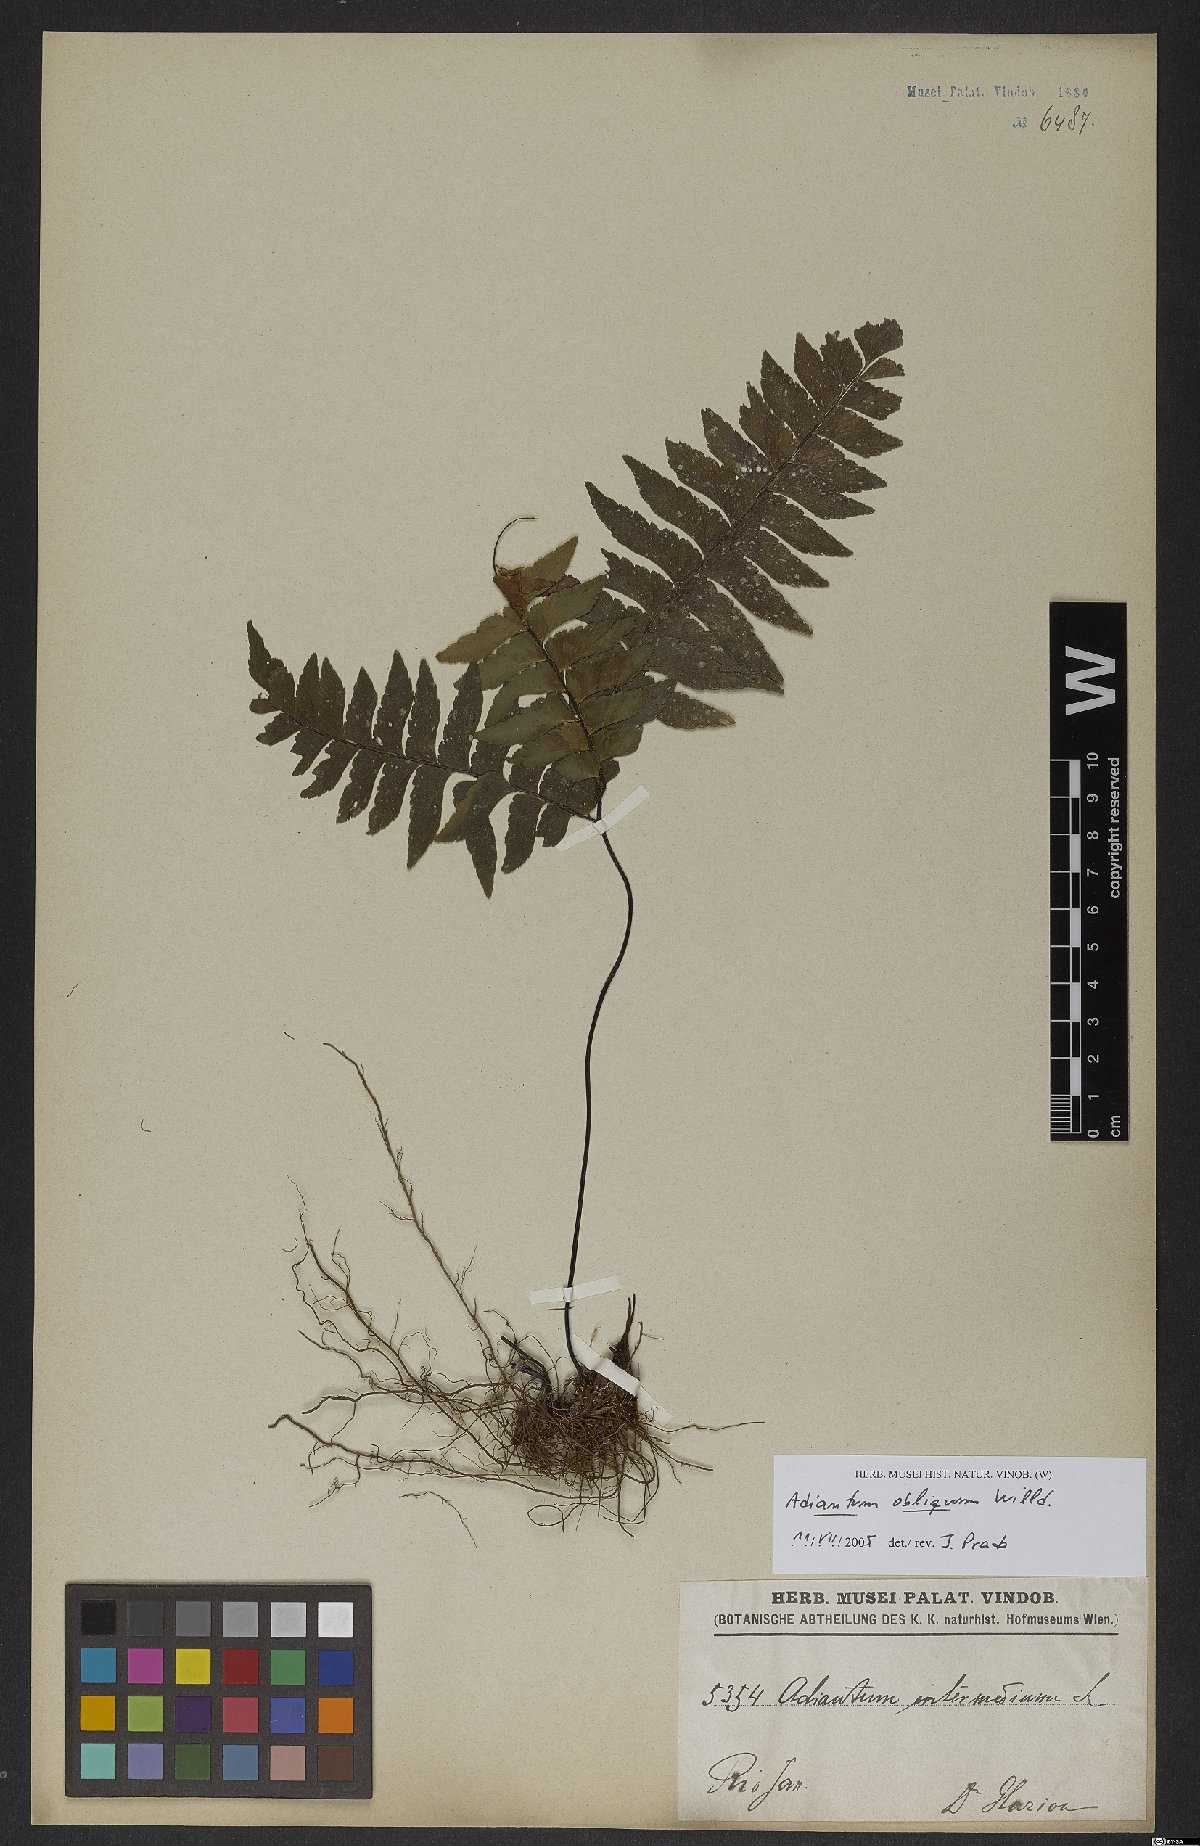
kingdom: Plantae
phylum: Tracheophyta
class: Polypodiopsida
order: Polypodiales
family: Pteridaceae
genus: Adiantum
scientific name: Adiantum obliquum
